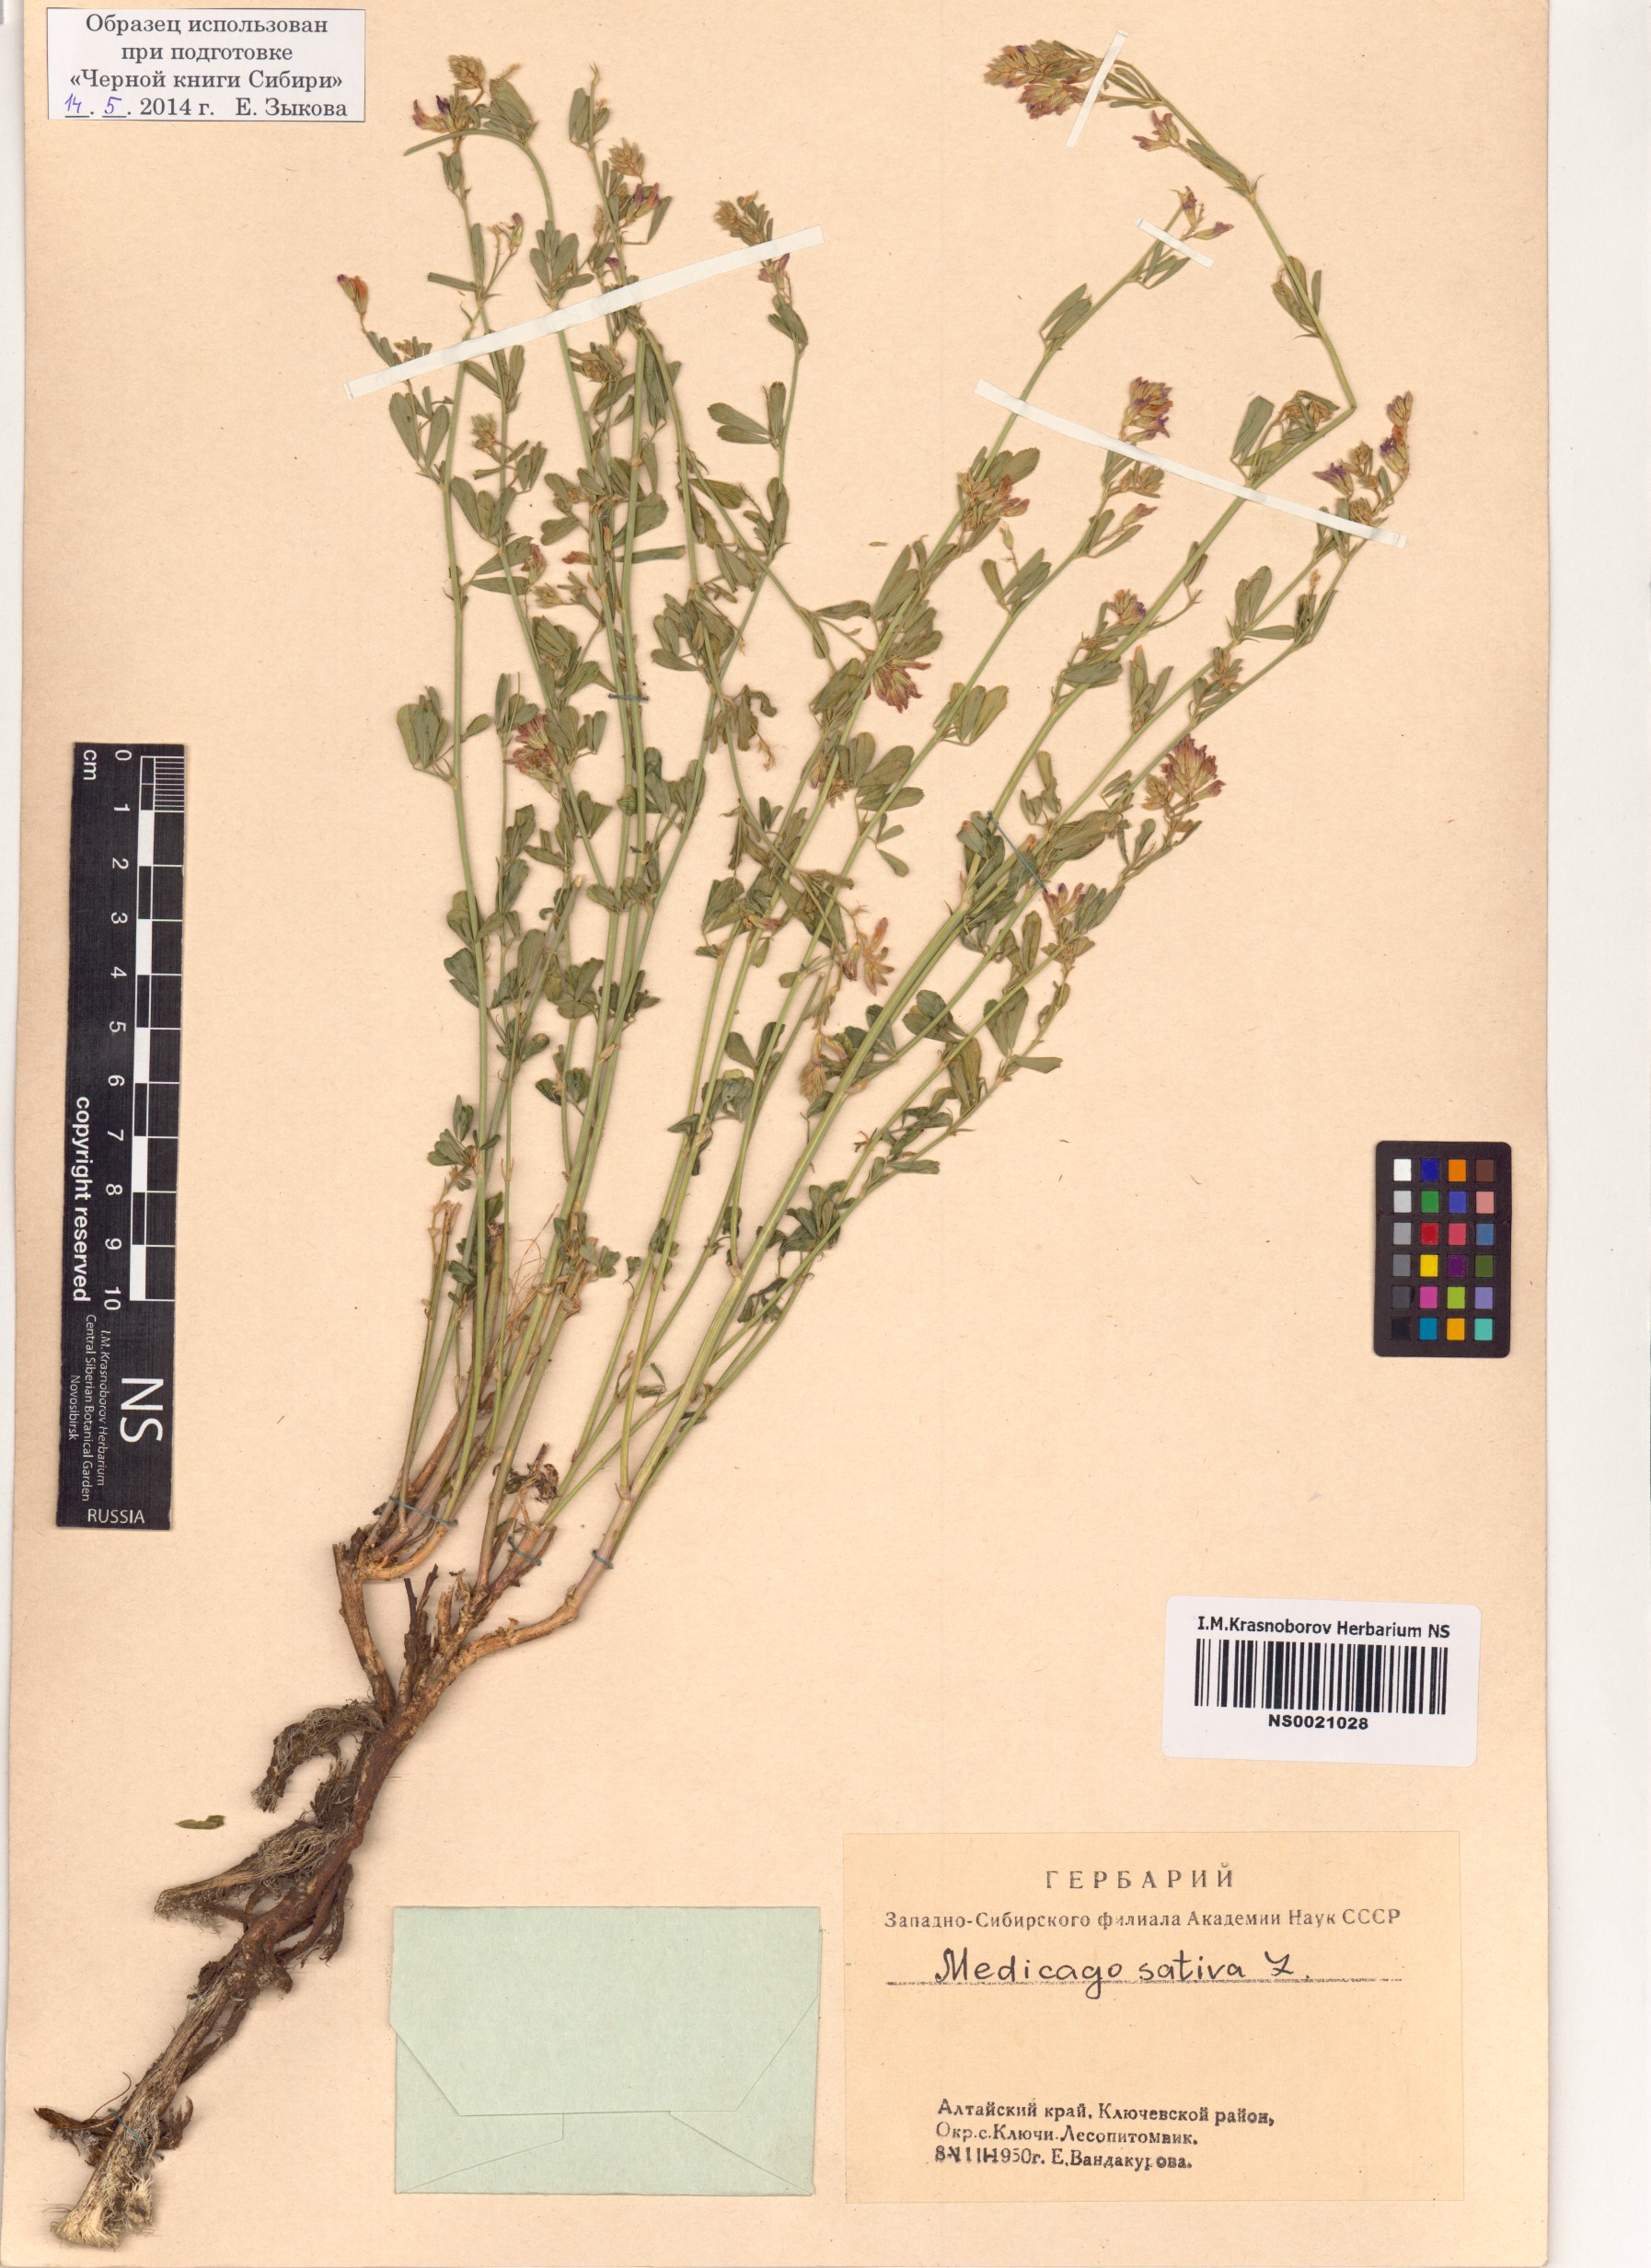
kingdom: Plantae
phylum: Tracheophyta
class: Magnoliopsida
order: Fabales
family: Fabaceae
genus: Medicago
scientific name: Medicago sativa
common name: Alfalfa
